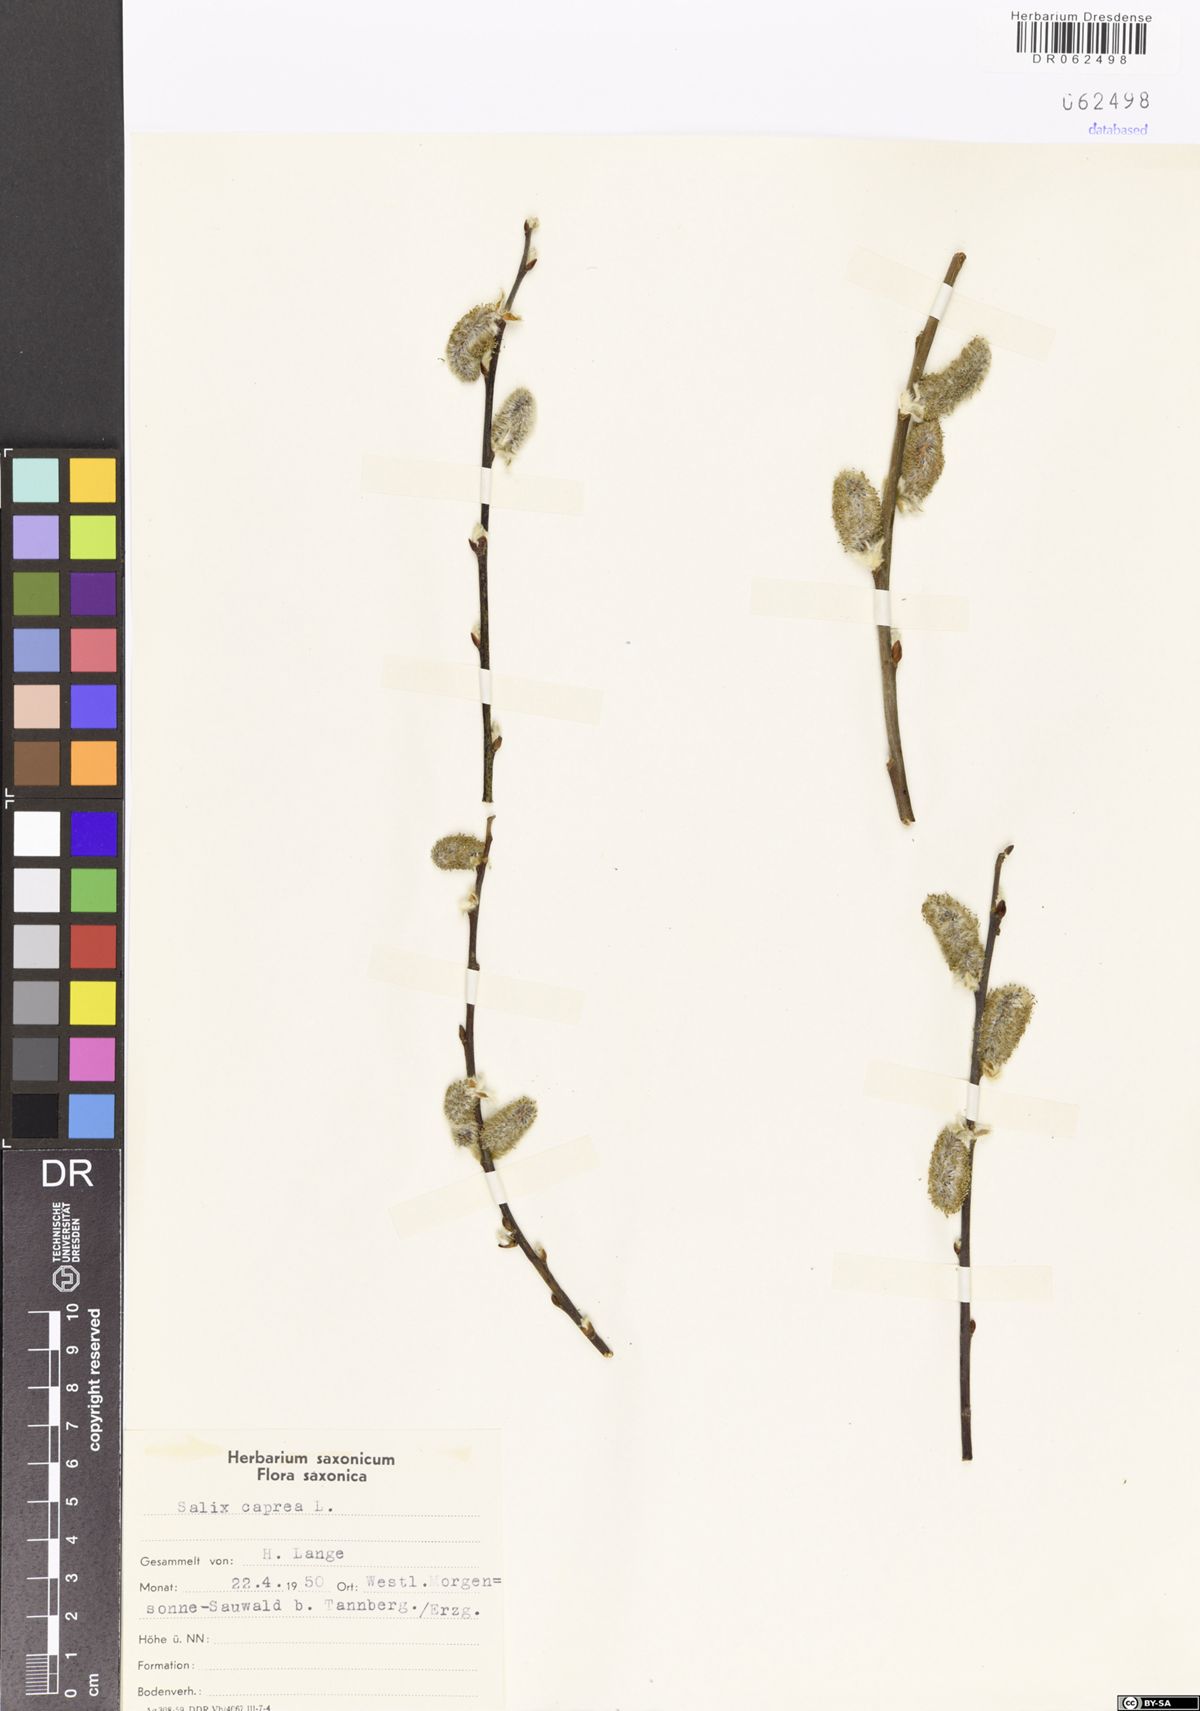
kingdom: Plantae
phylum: Tracheophyta
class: Magnoliopsida
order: Malpighiales
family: Salicaceae
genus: Salix
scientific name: Salix caprea
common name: Goat willow
